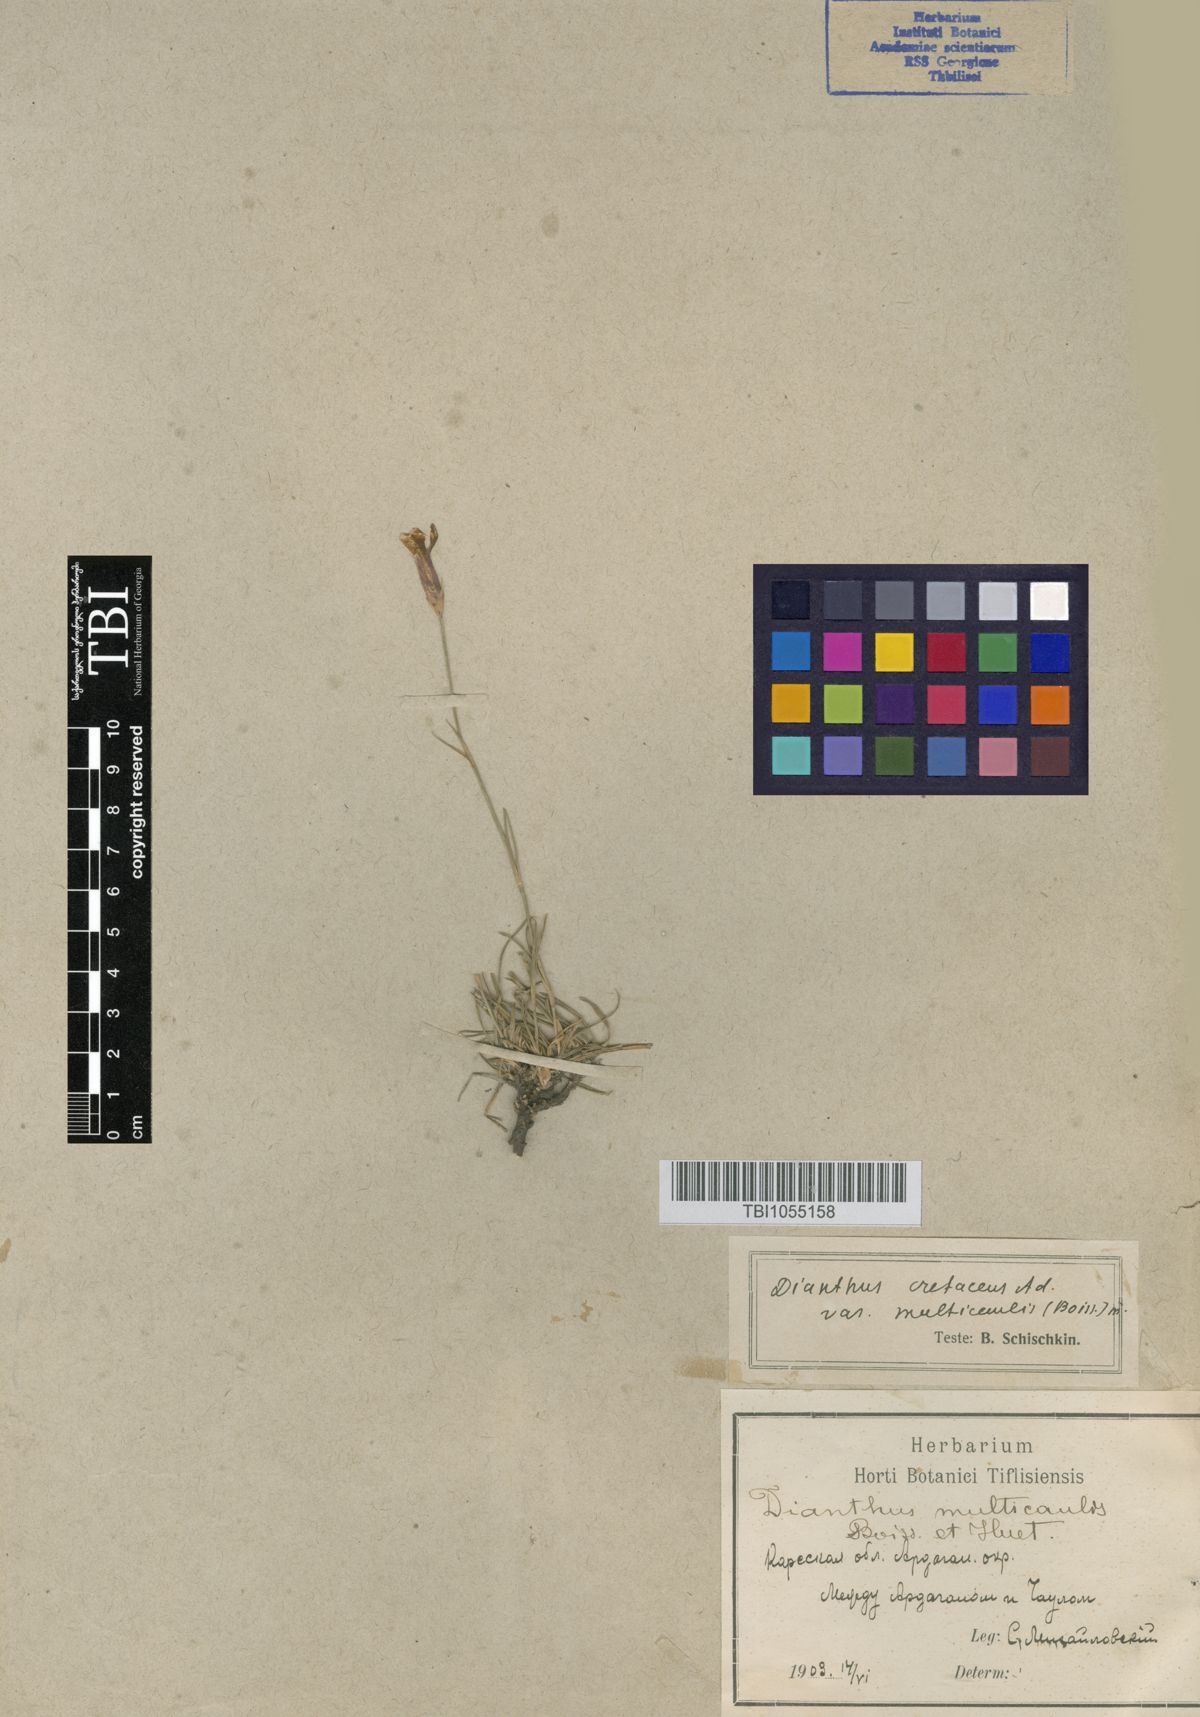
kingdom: Plantae
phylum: Tracheophyta
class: Magnoliopsida
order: Caryophyllales
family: Caryophyllaceae
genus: Dianthus
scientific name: Dianthus cretaceus
